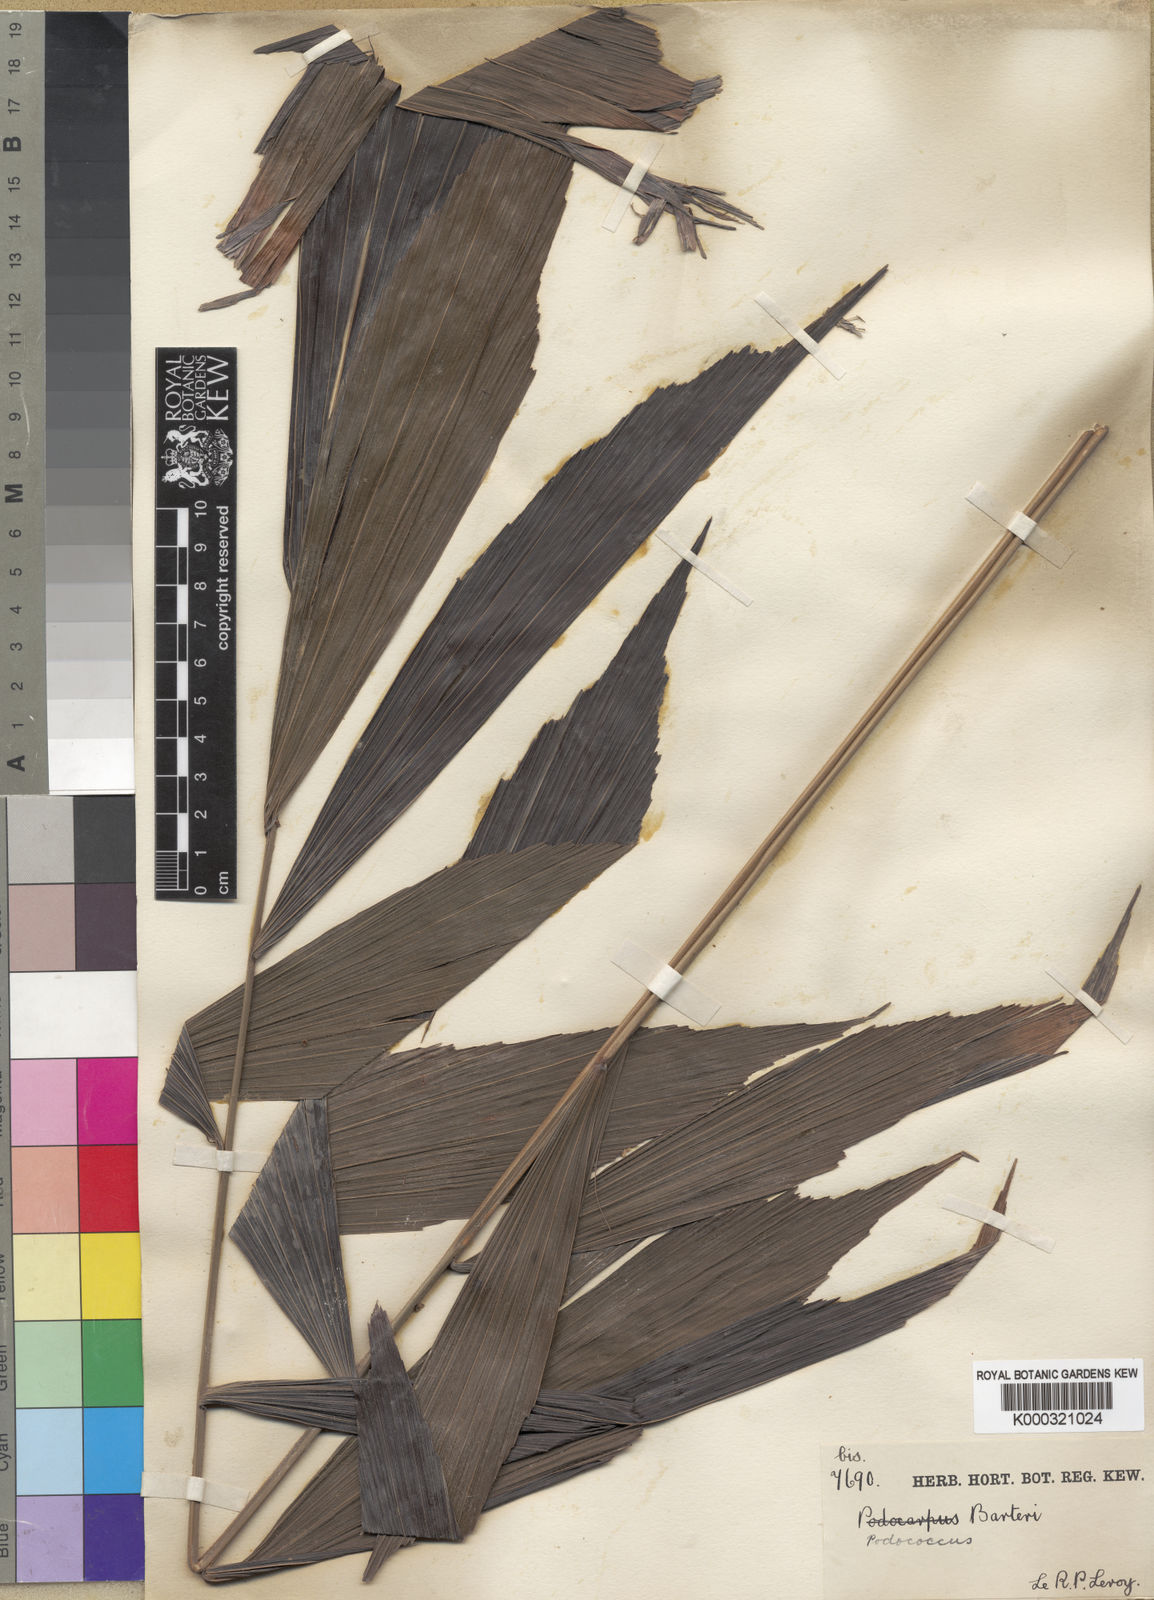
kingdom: Plantae
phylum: Tracheophyta
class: Liliopsida
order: Arecales
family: Arecaceae
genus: Podococcus
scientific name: Podococcus acaulis
